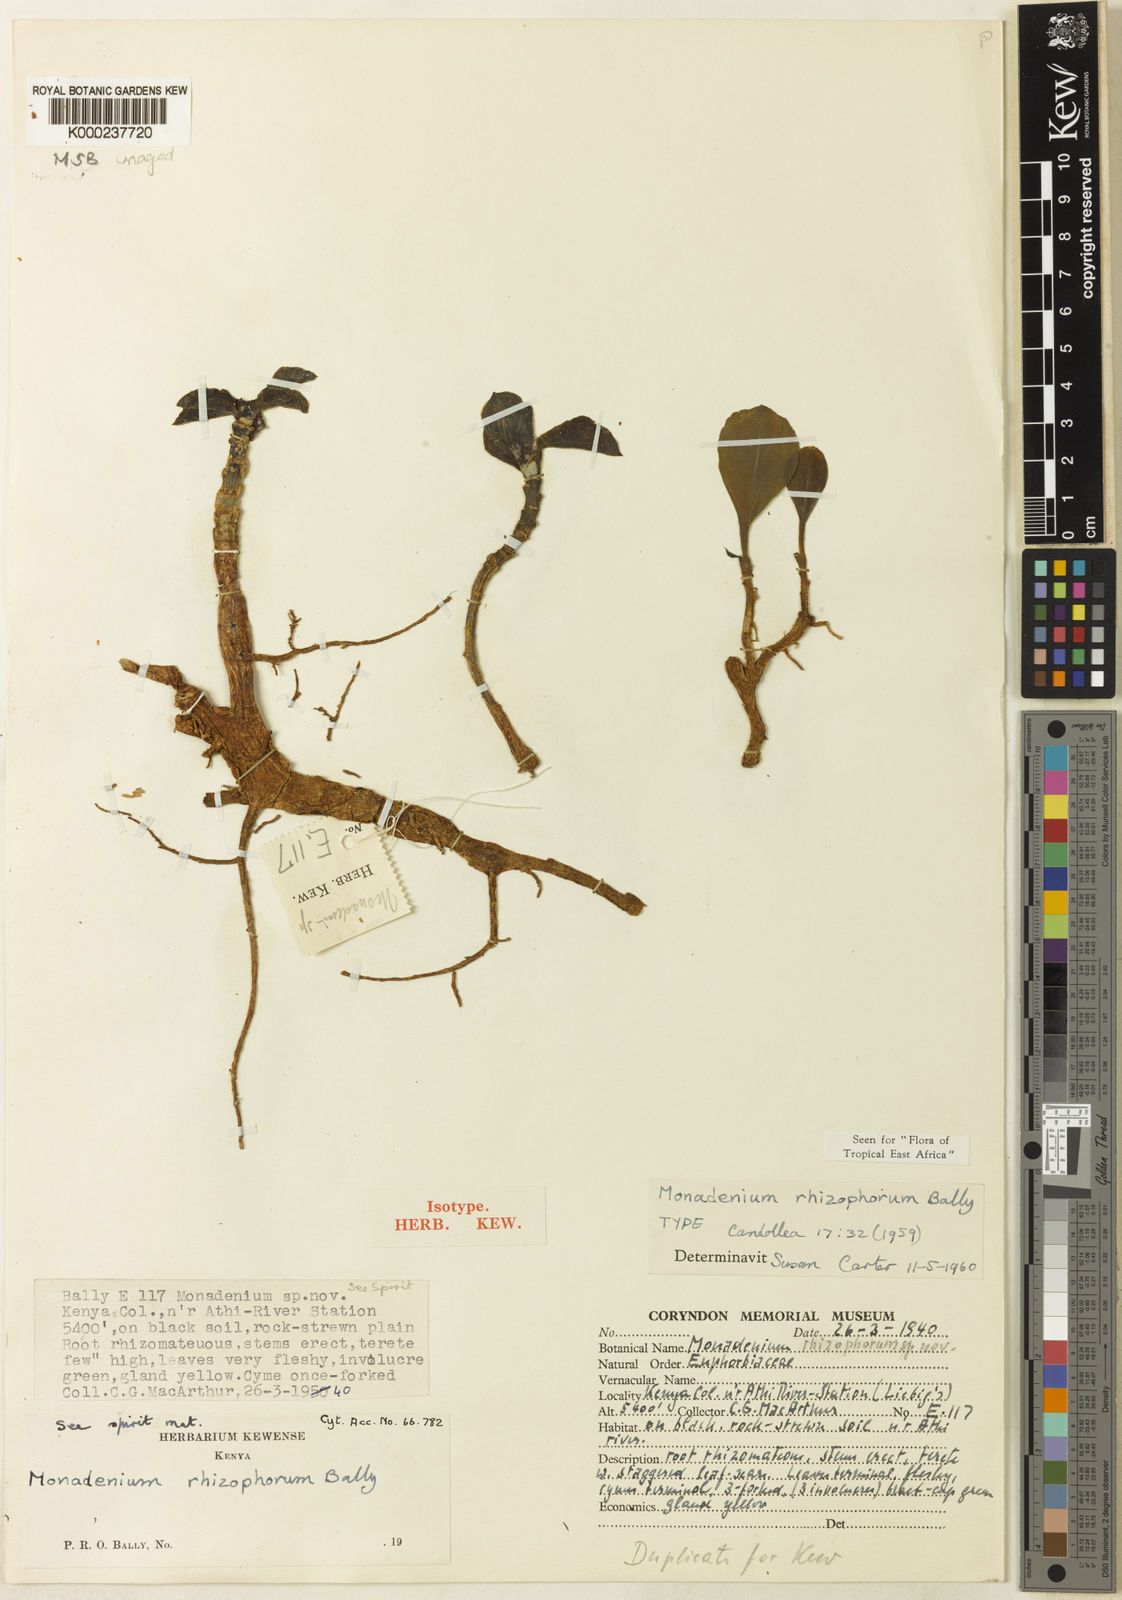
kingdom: Plantae
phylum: Tracheophyta
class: Magnoliopsida
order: Malpighiales
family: Euphorbiaceae
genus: Euphorbia
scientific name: Euphorbia rhizophora
